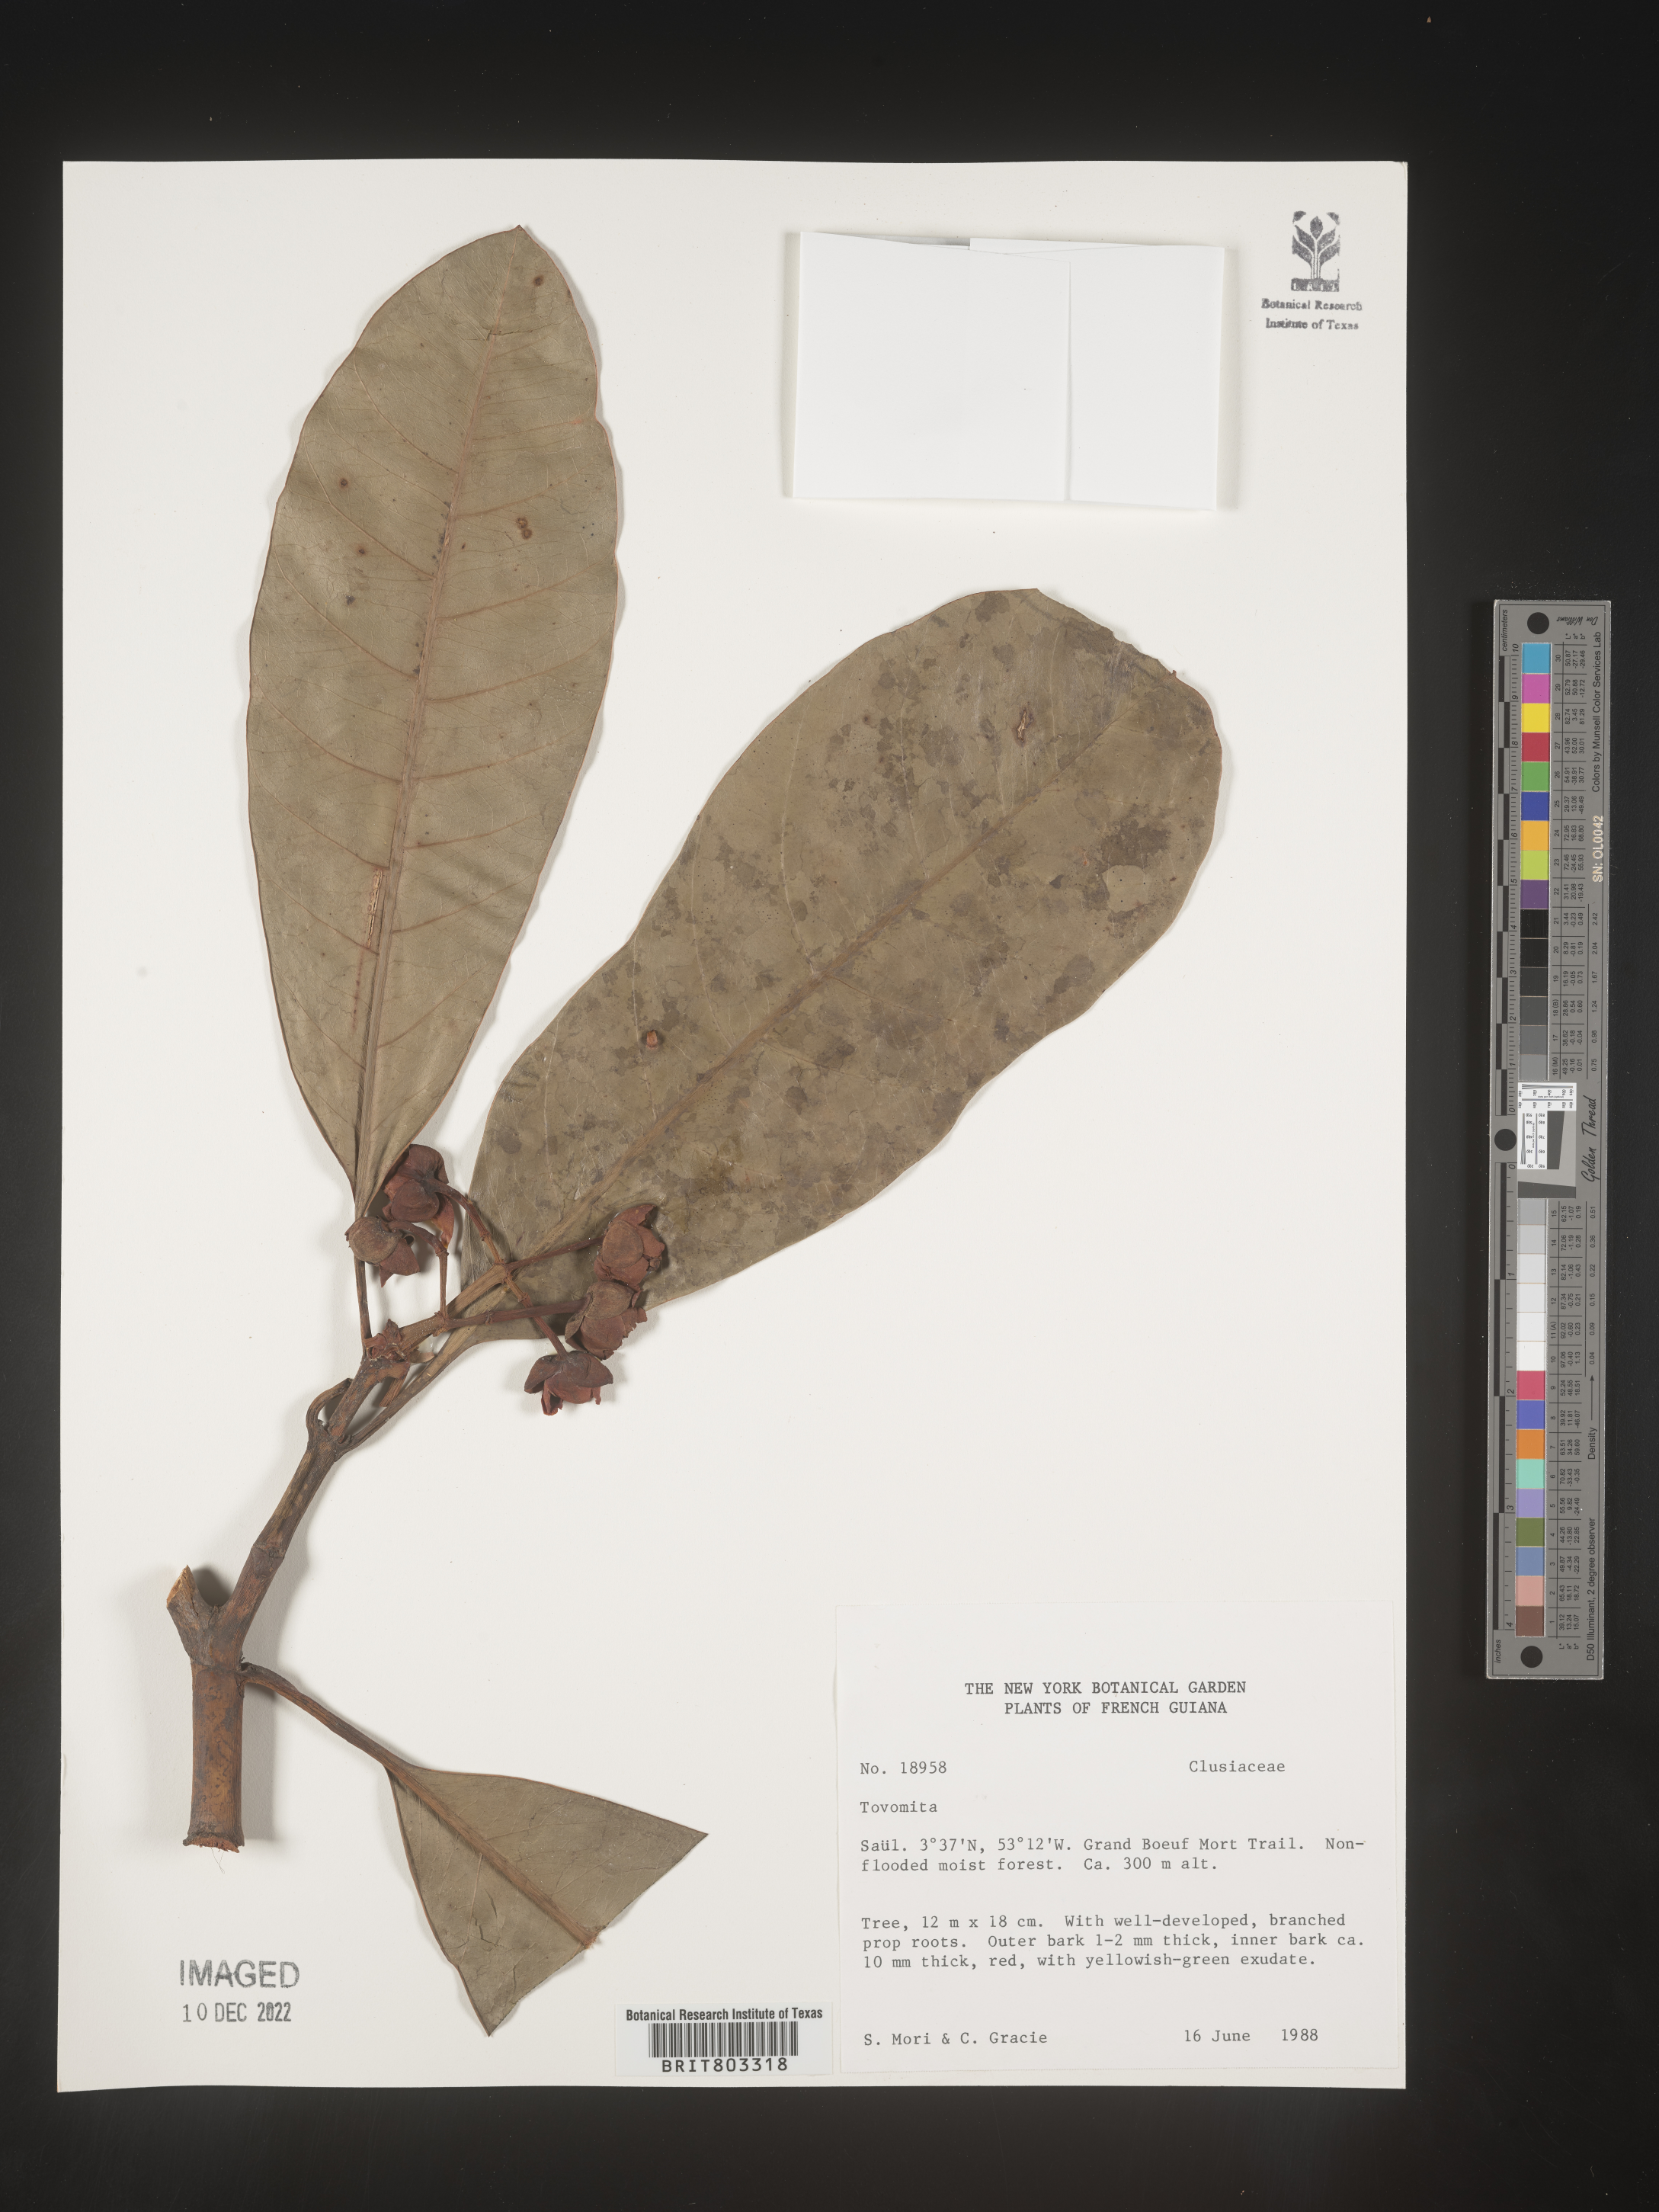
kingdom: Plantae
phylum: Tracheophyta
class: Magnoliopsida
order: Malpighiales
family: Clusiaceae
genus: Tovomita
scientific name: Tovomita
